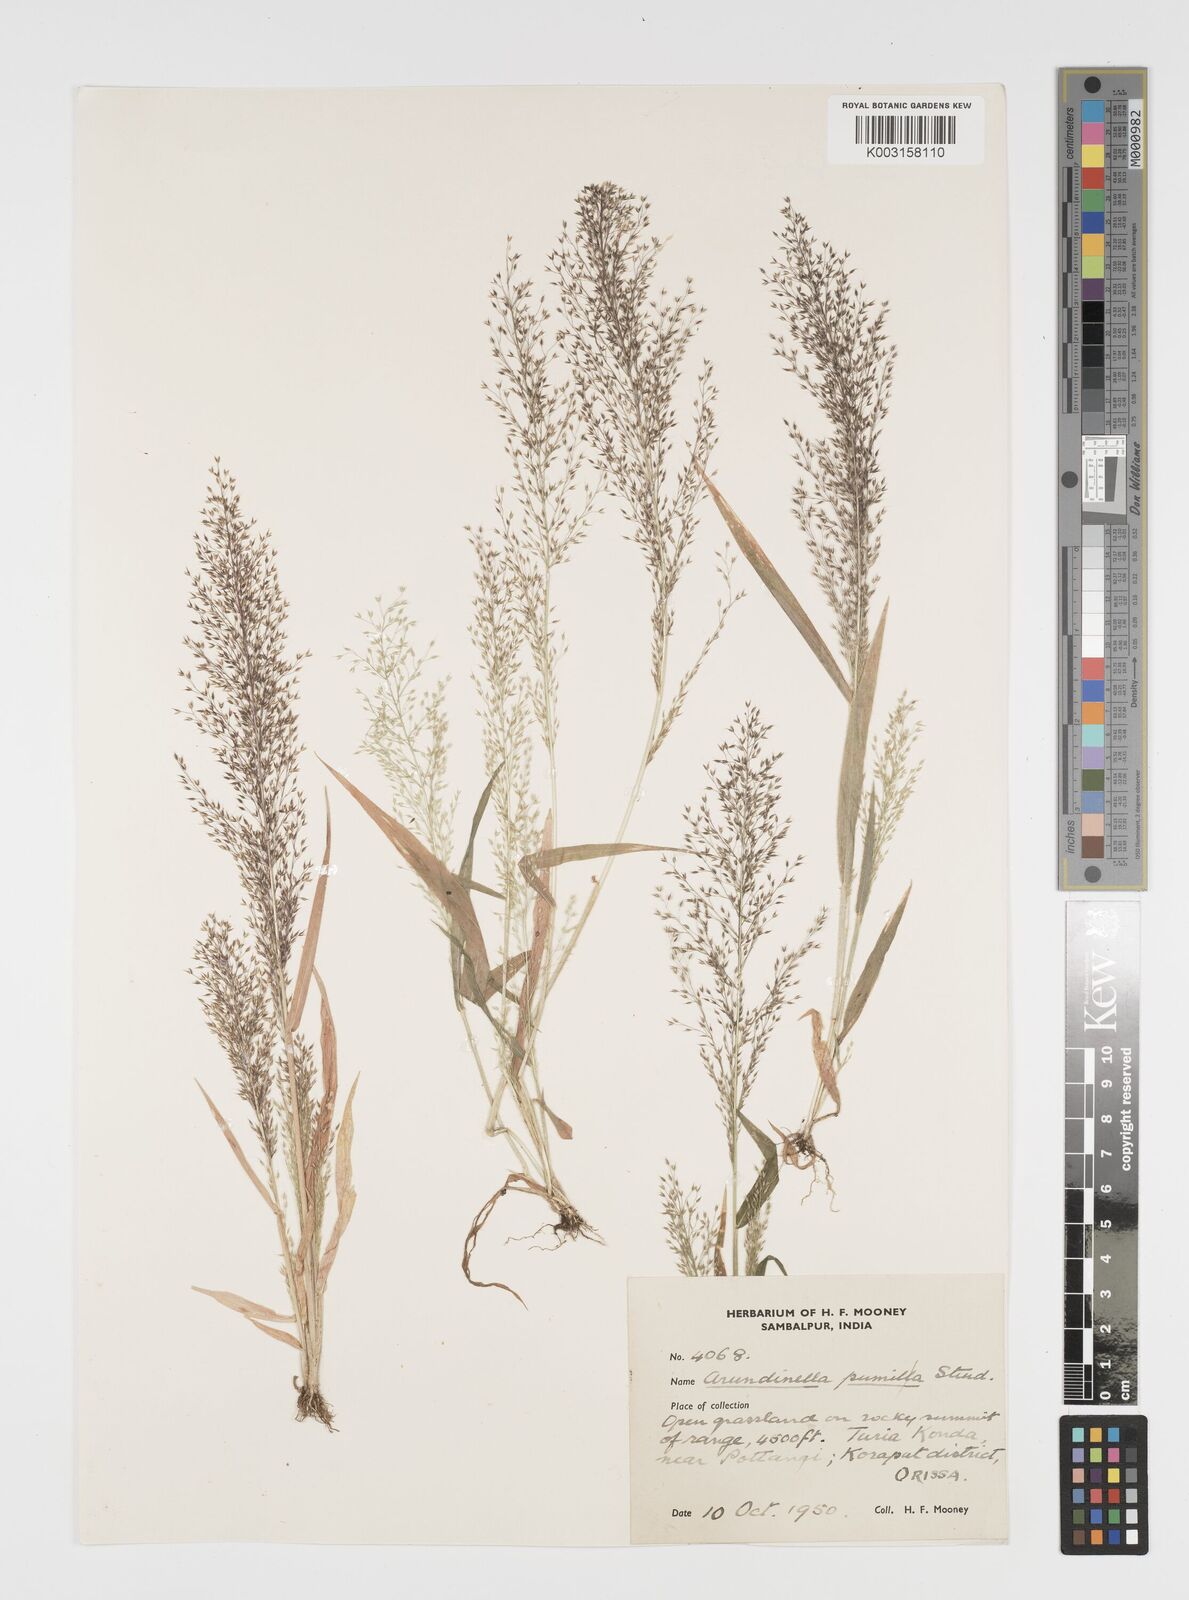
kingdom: Plantae
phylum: Tracheophyta
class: Liliopsida
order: Poales
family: Poaceae
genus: Arundinella
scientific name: Arundinella pumila
